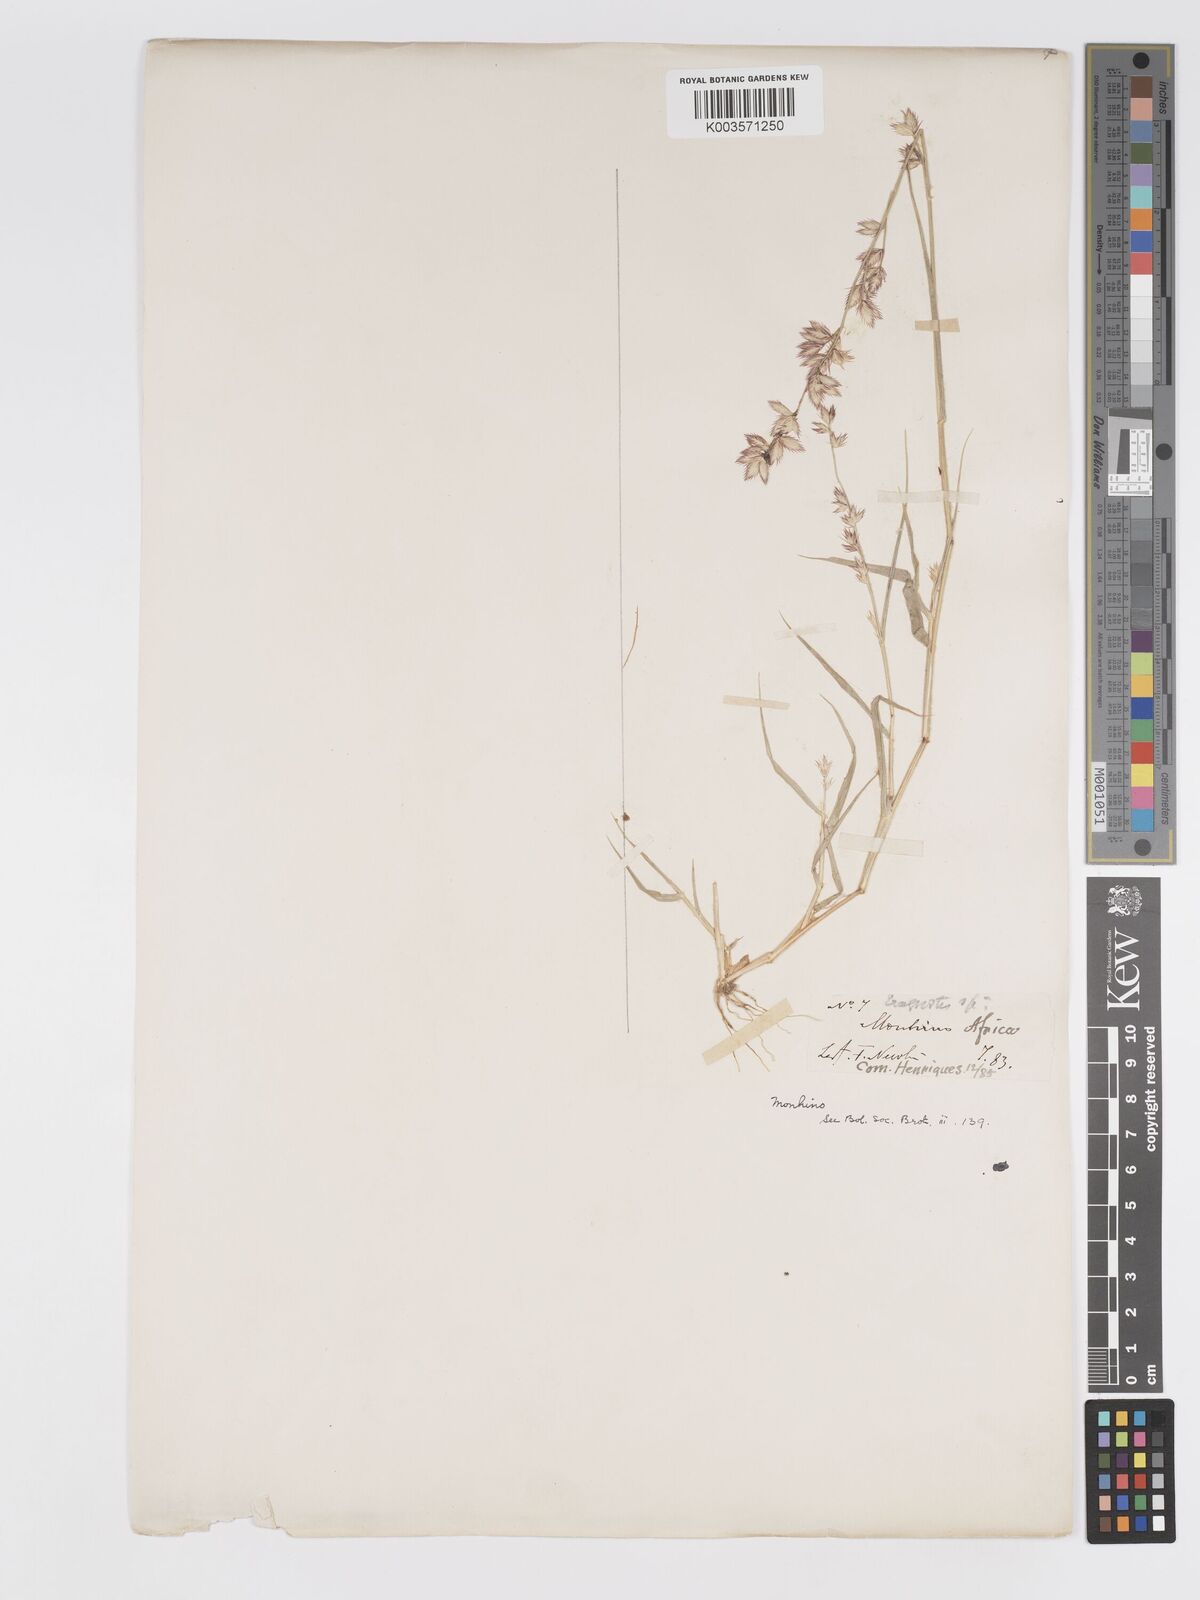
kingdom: Plantae
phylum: Tracheophyta
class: Liliopsida
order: Poales
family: Poaceae
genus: Eragrostis
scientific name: Eragrostis variegata
